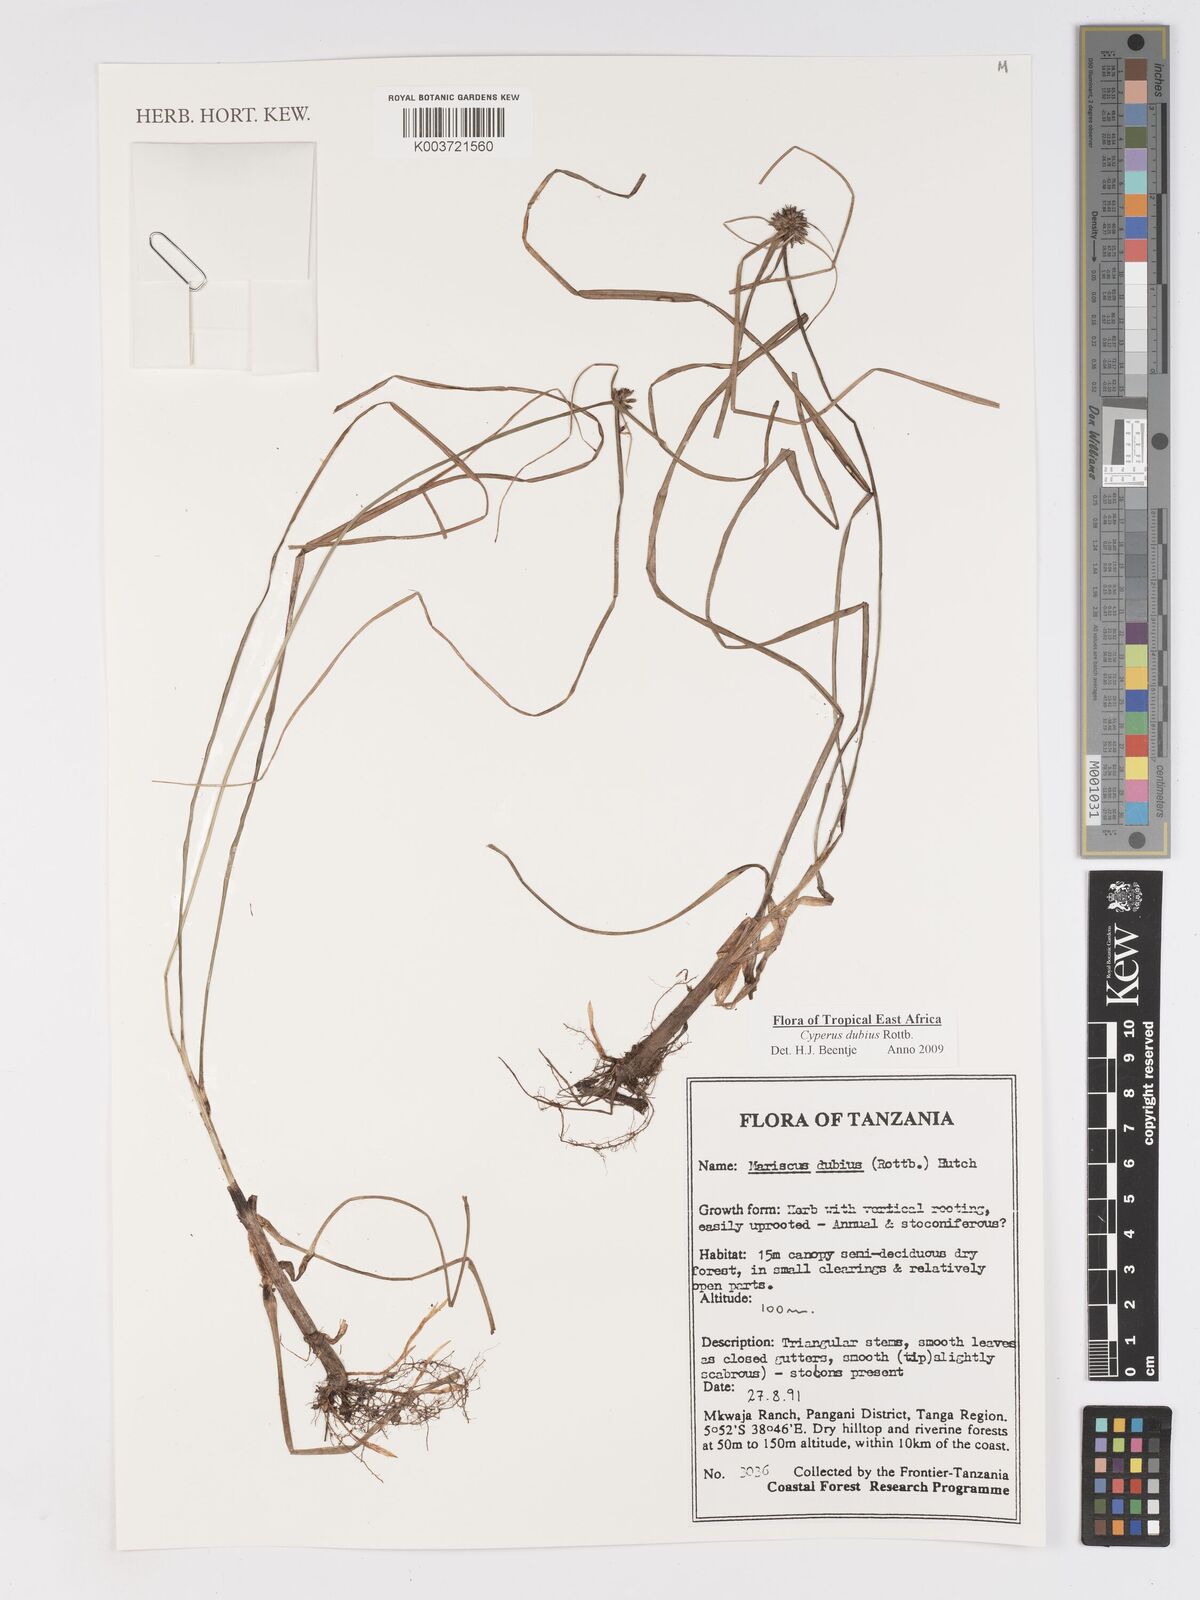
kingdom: Plantae
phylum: Tracheophyta
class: Liliopsida
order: Poales
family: Cyperaceae
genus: Cyperus
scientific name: Cyperus dubius
